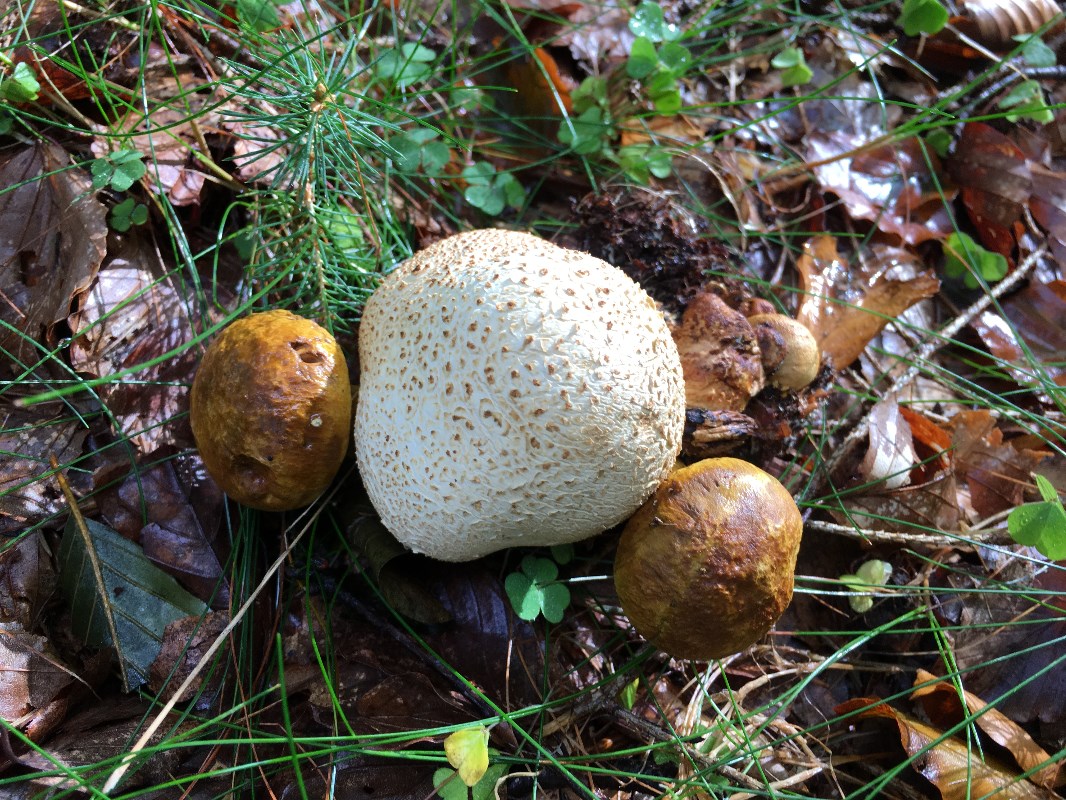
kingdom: Fungi
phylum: Basidiomycota
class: Agaricomycetes
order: Boletales
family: Boletaceae
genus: Pseudoboletus
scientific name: Pseudoboletus parasiticus
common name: snyltende rørhat
